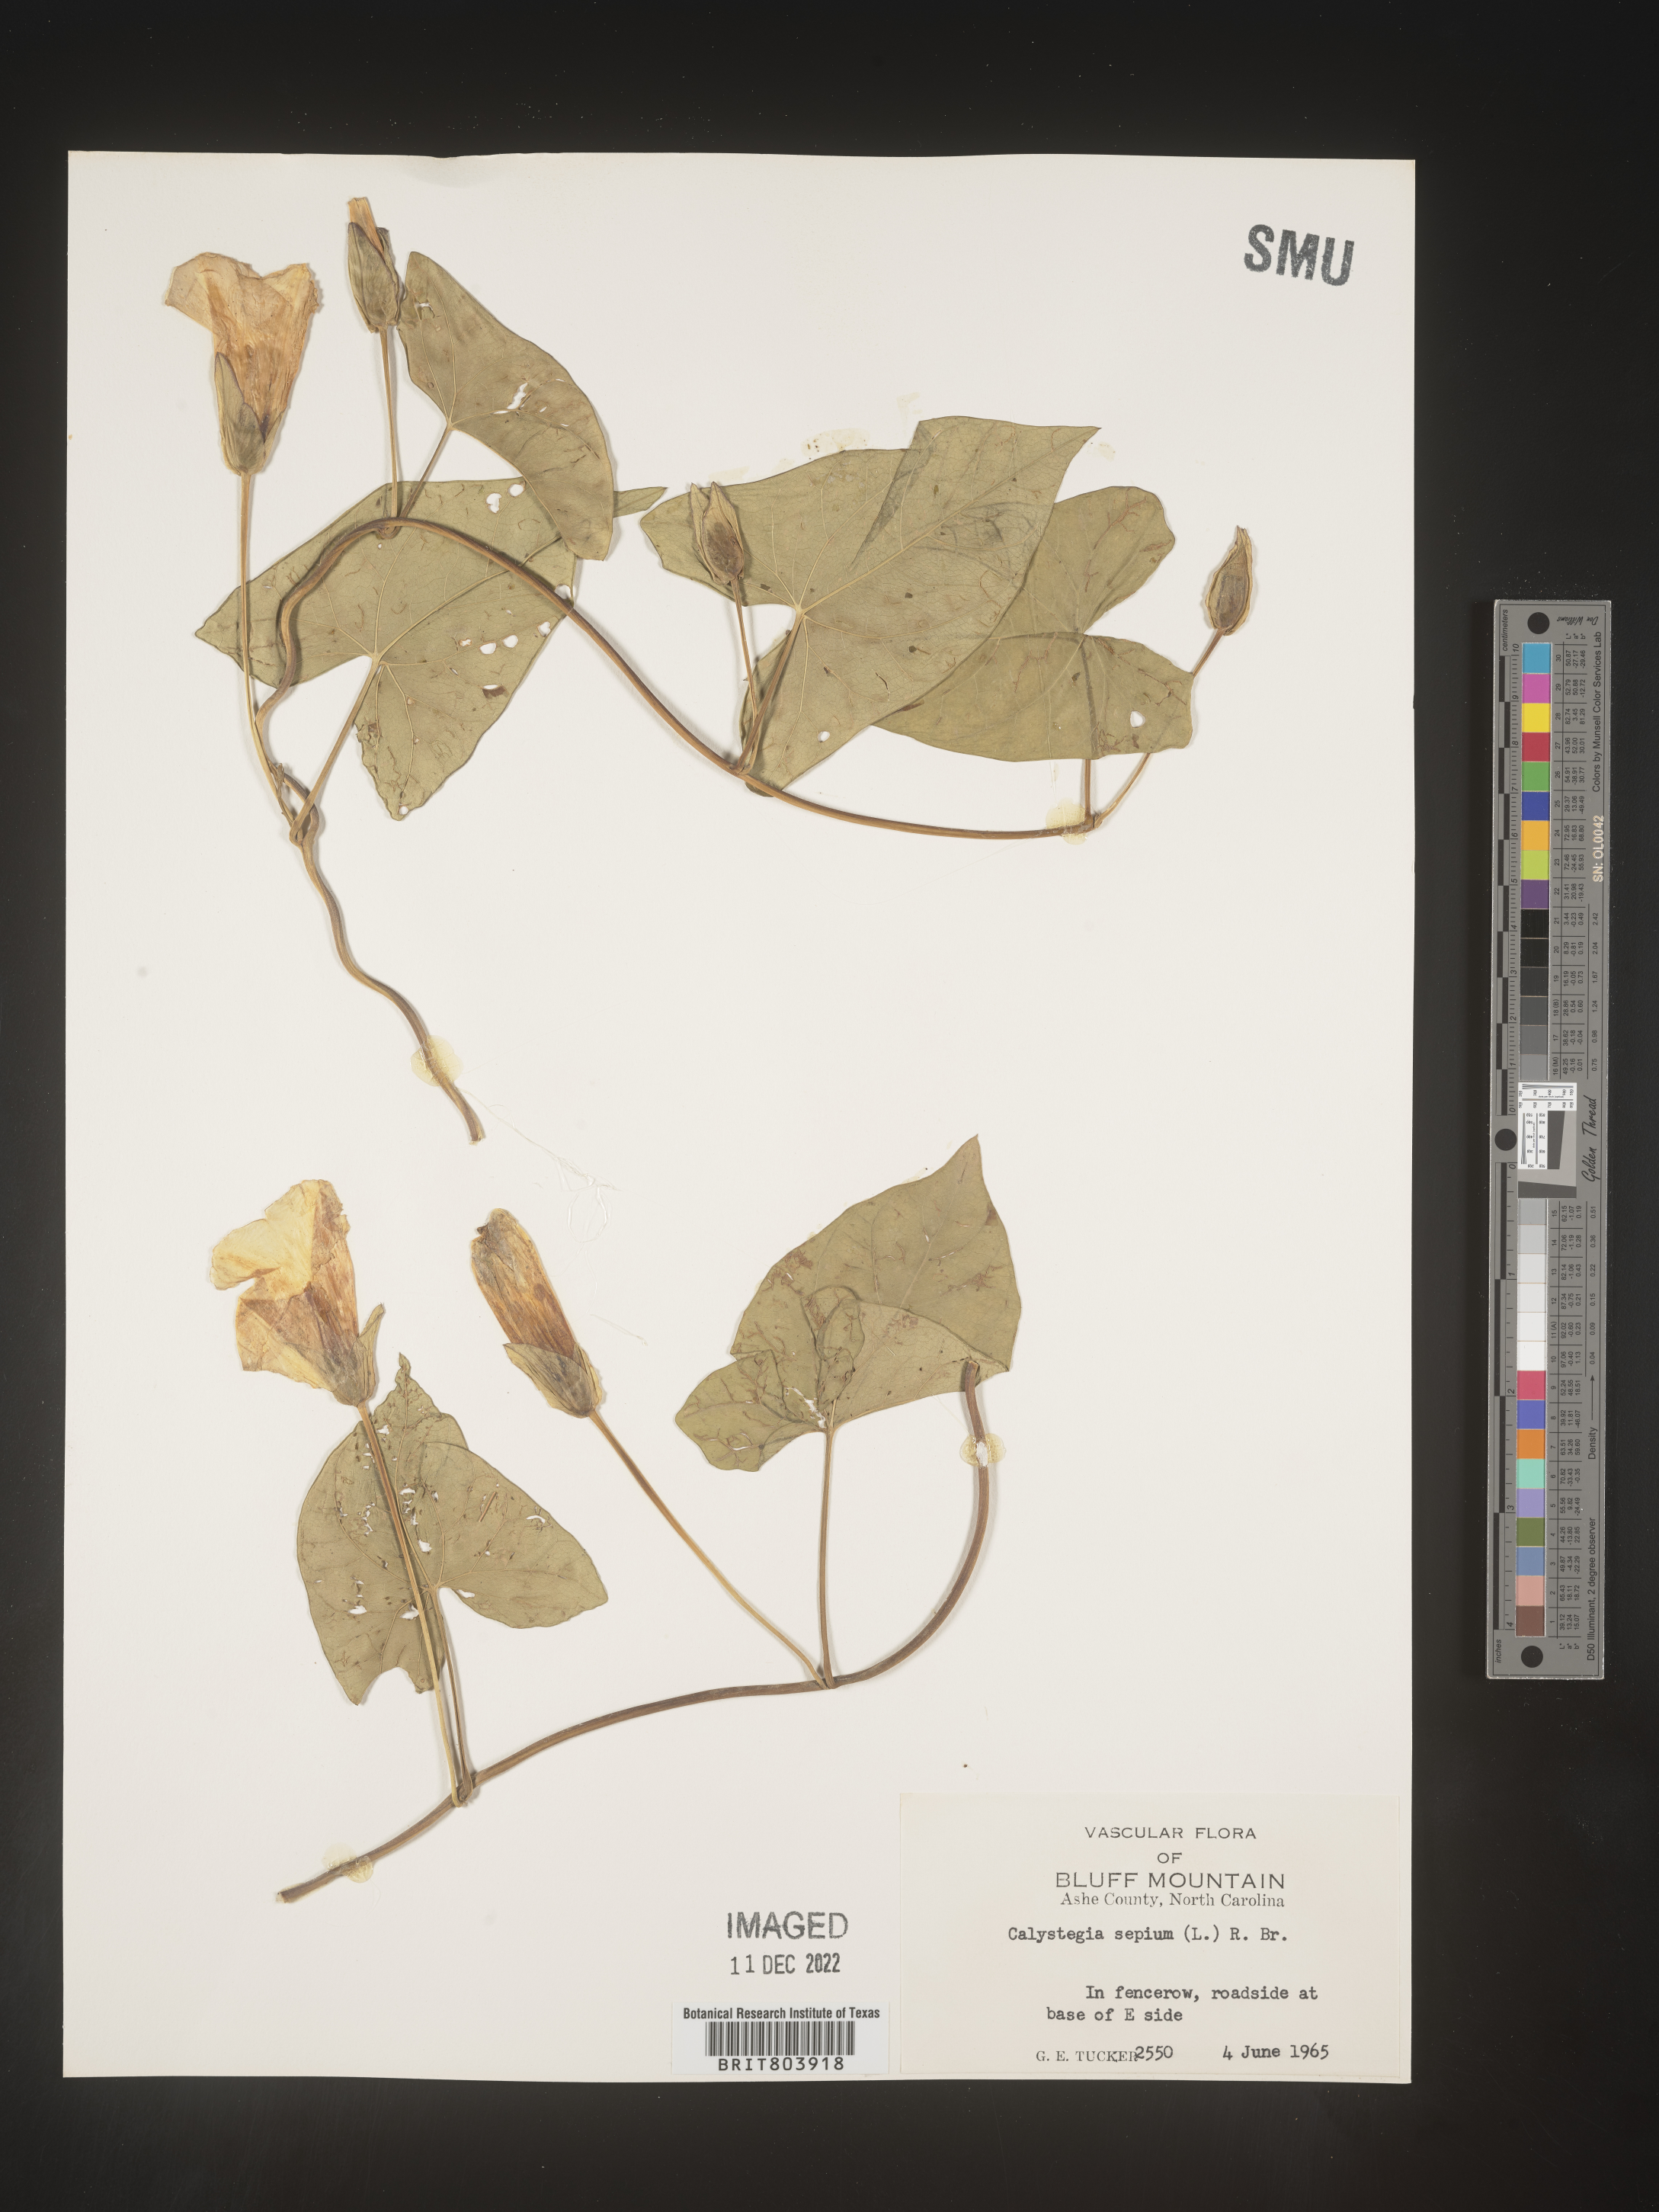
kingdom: Plantae
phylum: Tracheophyta
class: Magnoliopsida
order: Solanales
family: Convolvulaceae
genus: Calystegia
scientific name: Calystegia sepium
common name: Hedge bindweed
